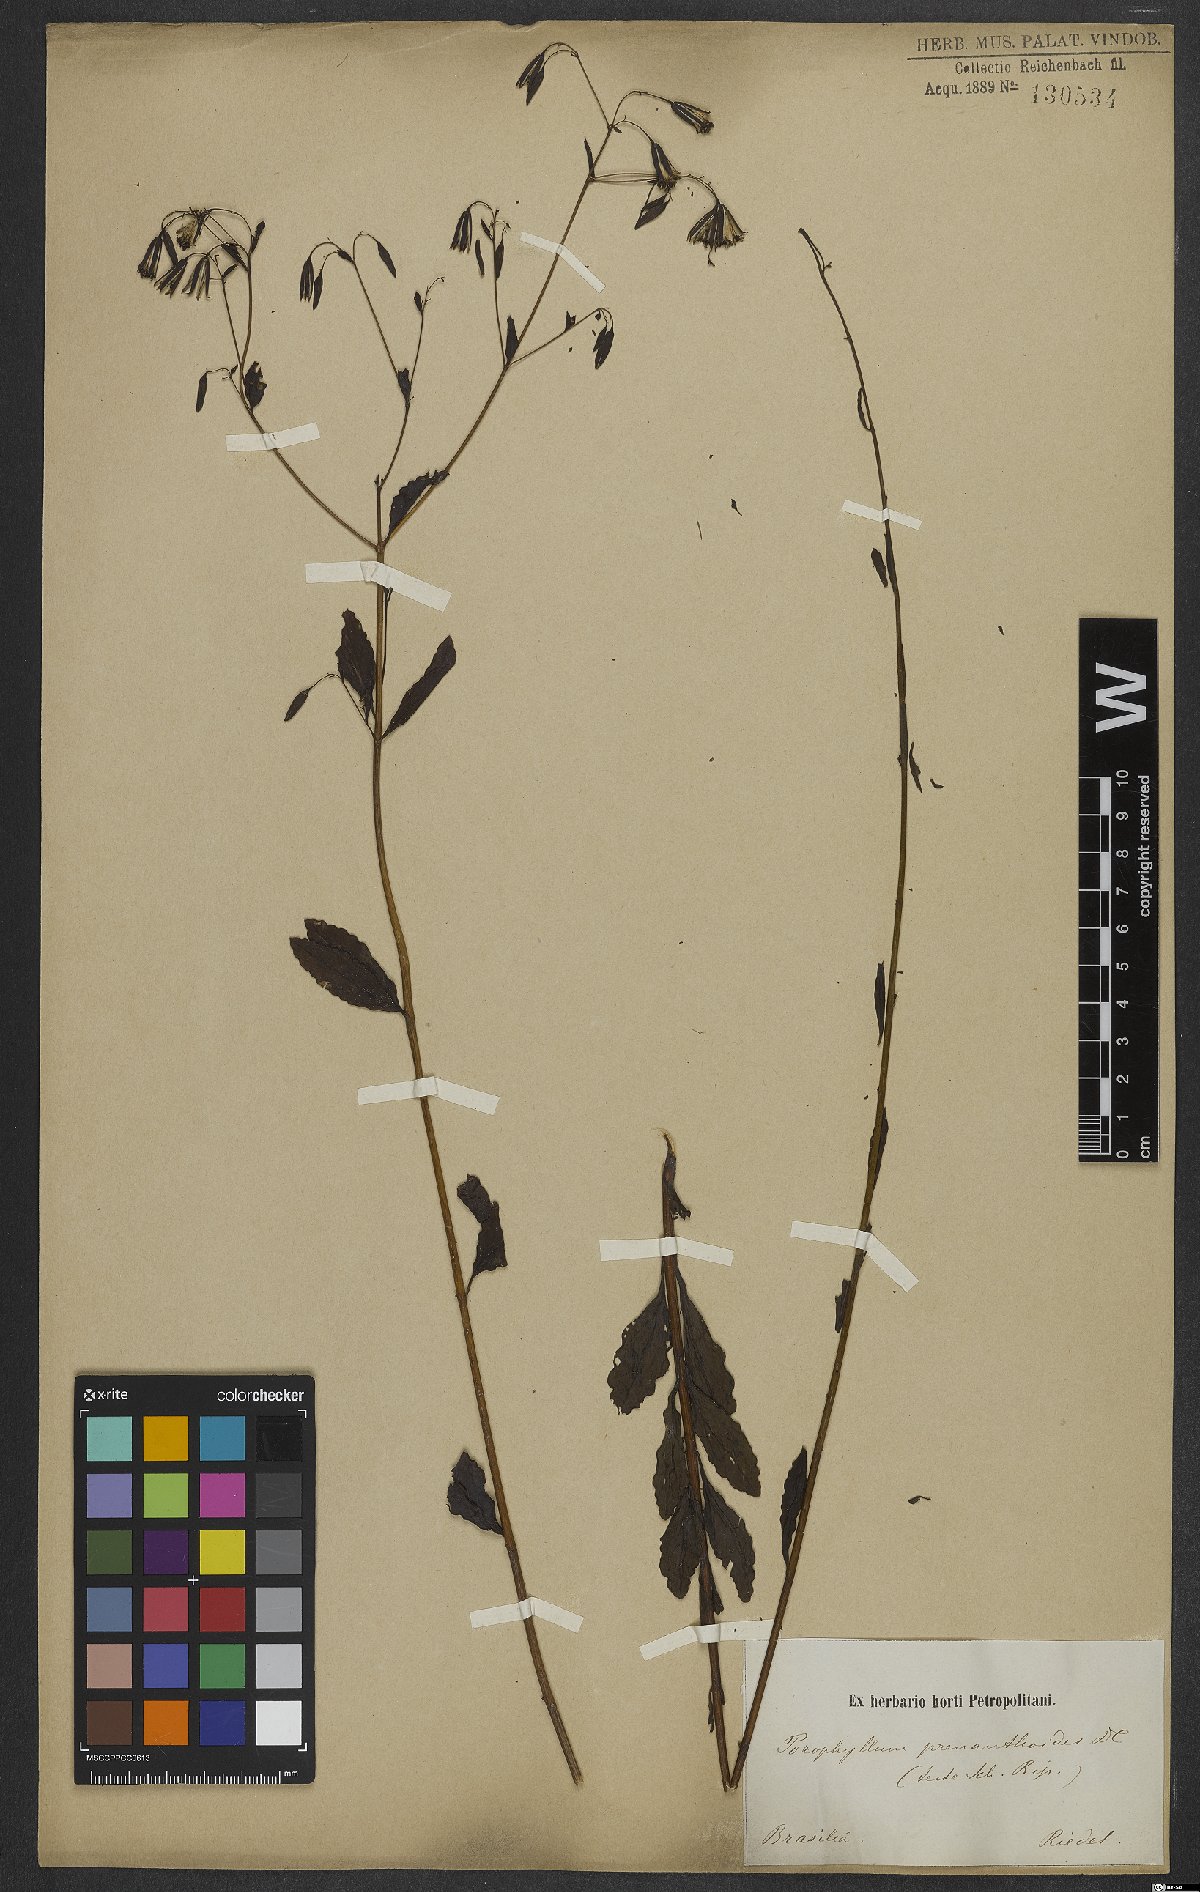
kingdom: Plantae
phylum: Tracheophyta
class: Magnoliopsida
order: Asterales
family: Asteraceae
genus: Porophyllum
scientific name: Porophyllum lanceolatum
